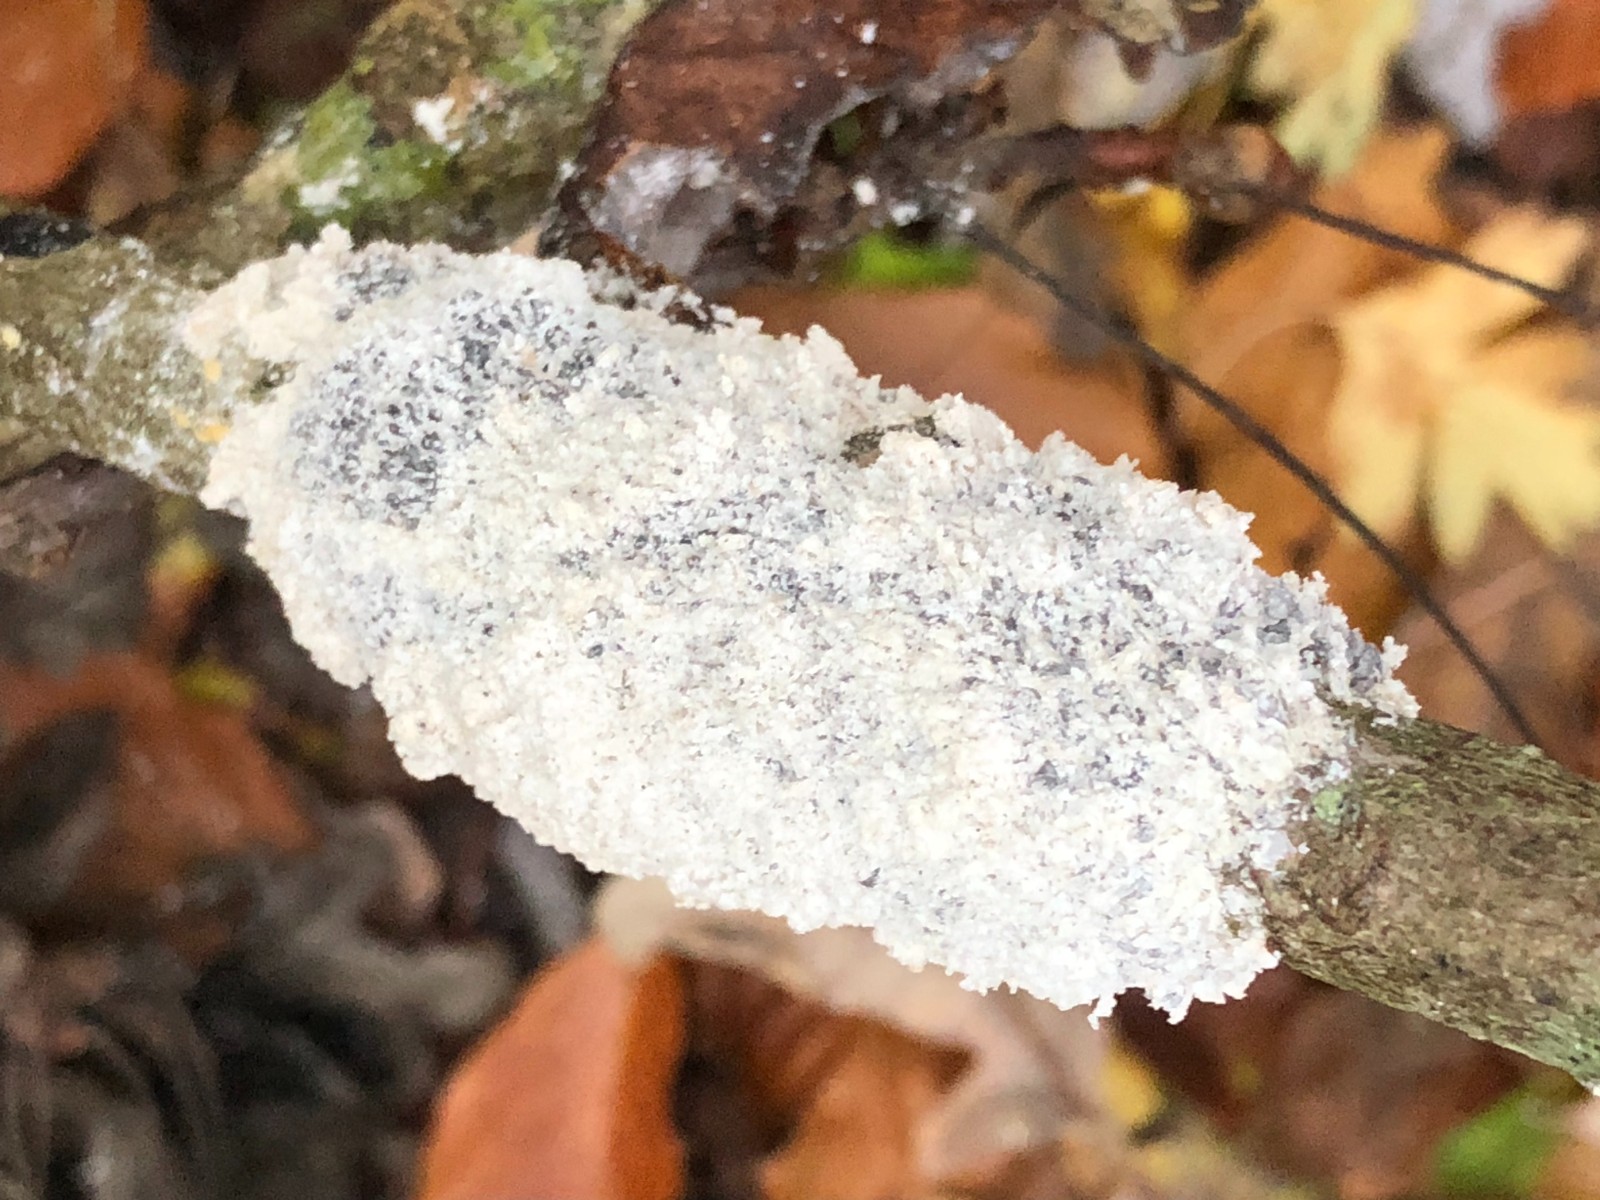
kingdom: Protozoa
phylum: Mycetozoa
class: Myxomycetes
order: Physarales
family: Physaraceae
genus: Didymium
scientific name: Didymium
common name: urteskum
